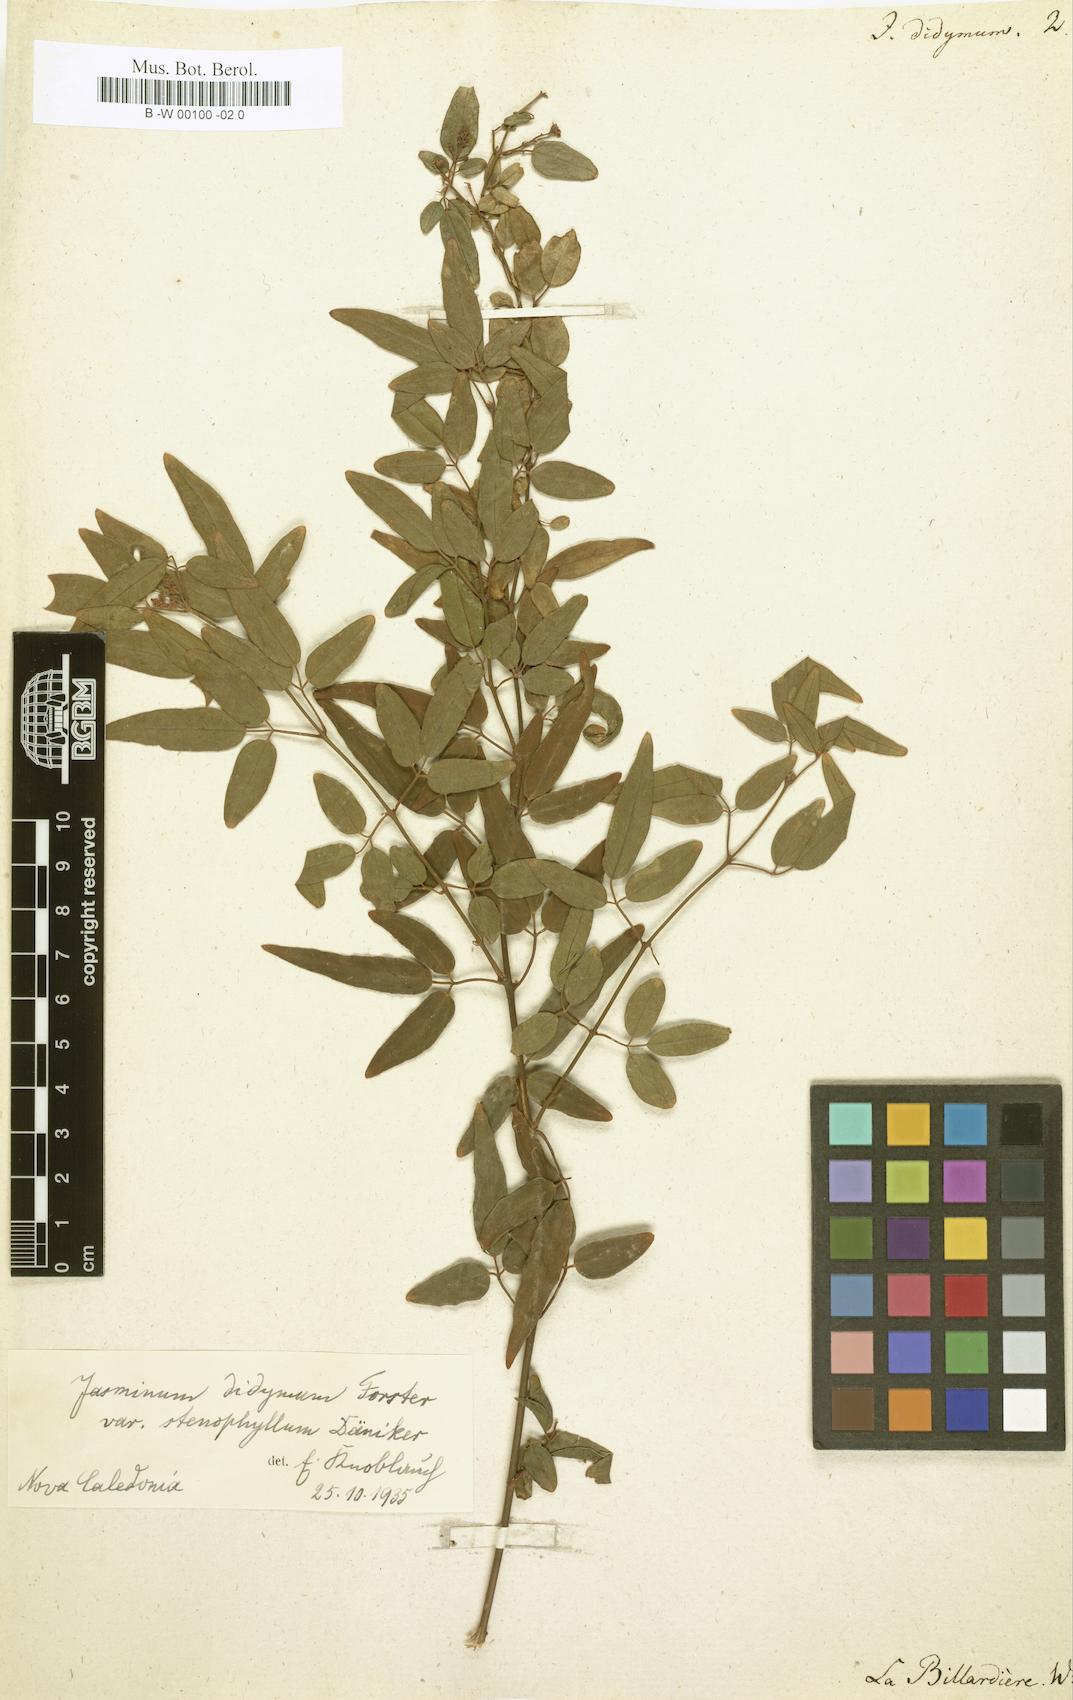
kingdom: Plantae
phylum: Tracheophyta
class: Magnoliopsida
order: Lamiales
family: Oleaceae
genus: Jasminum
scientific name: Jasminum didymum
